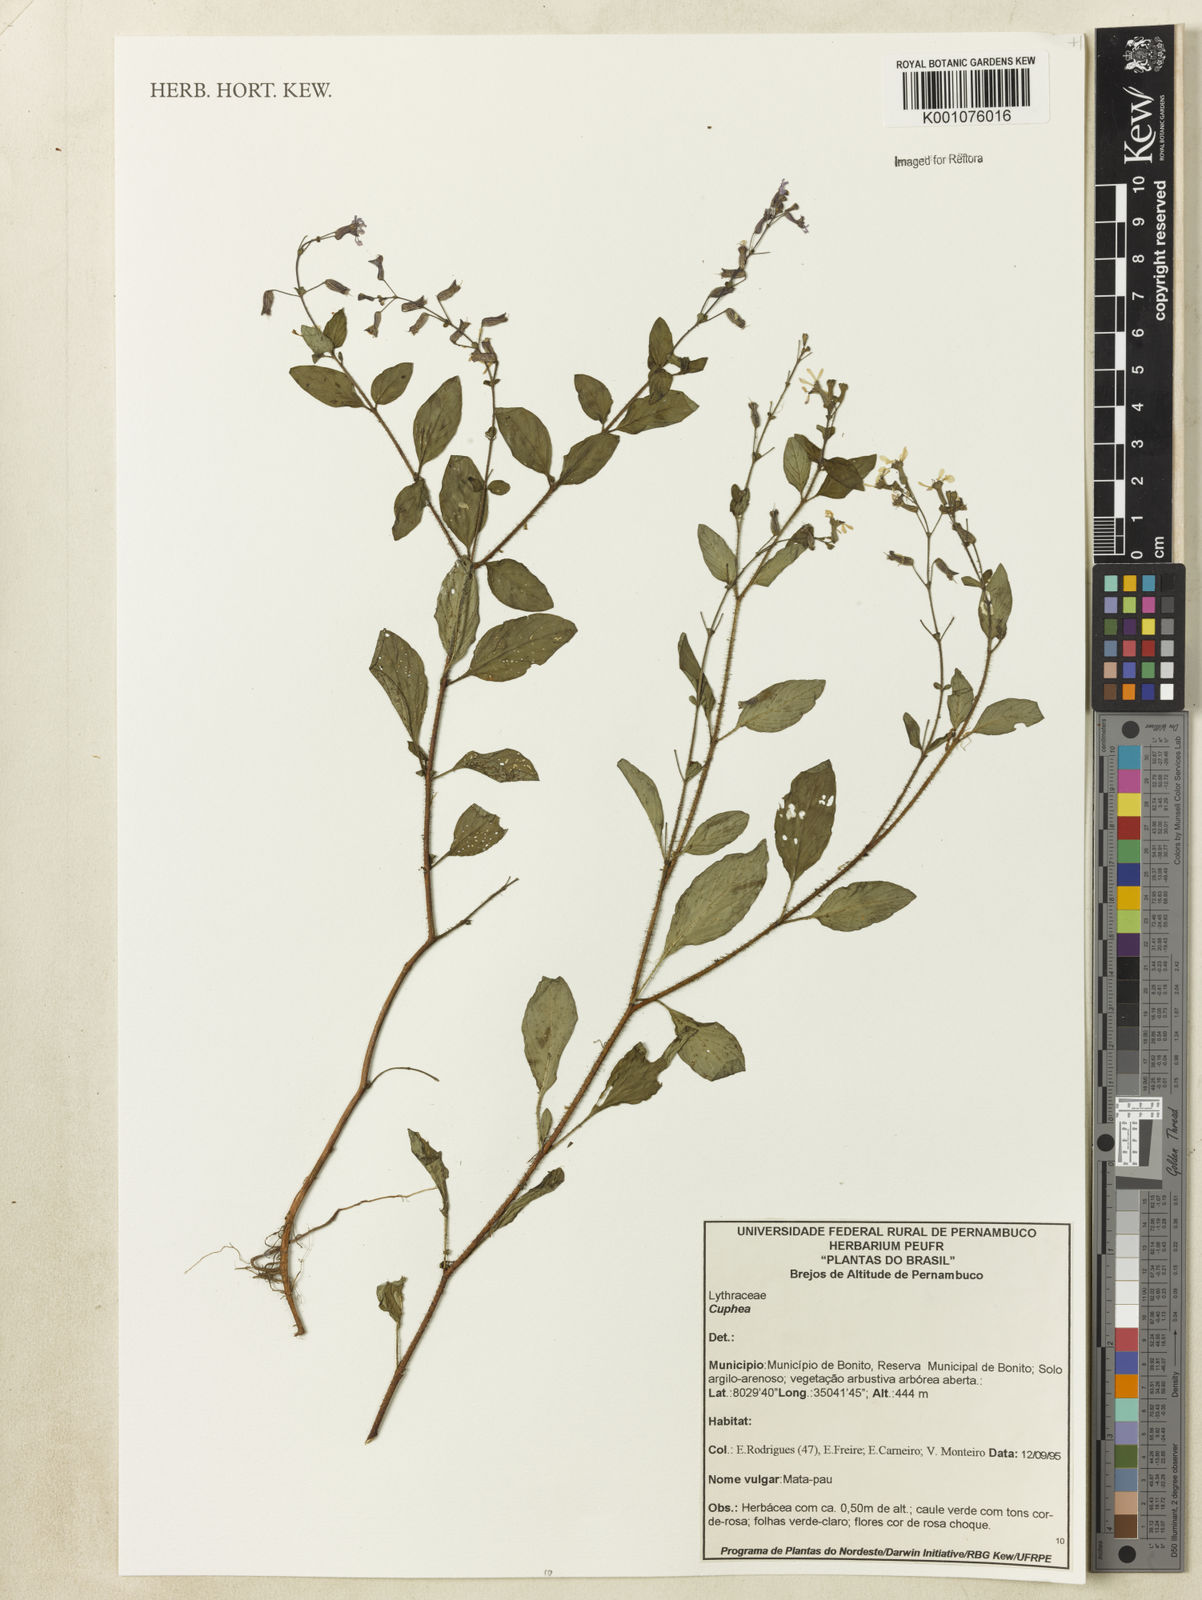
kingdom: Plantae
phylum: Tracheophyta
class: Magnoliopsida
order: Myrtales
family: Lythraceae
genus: Cuphea
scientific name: Cuphea
